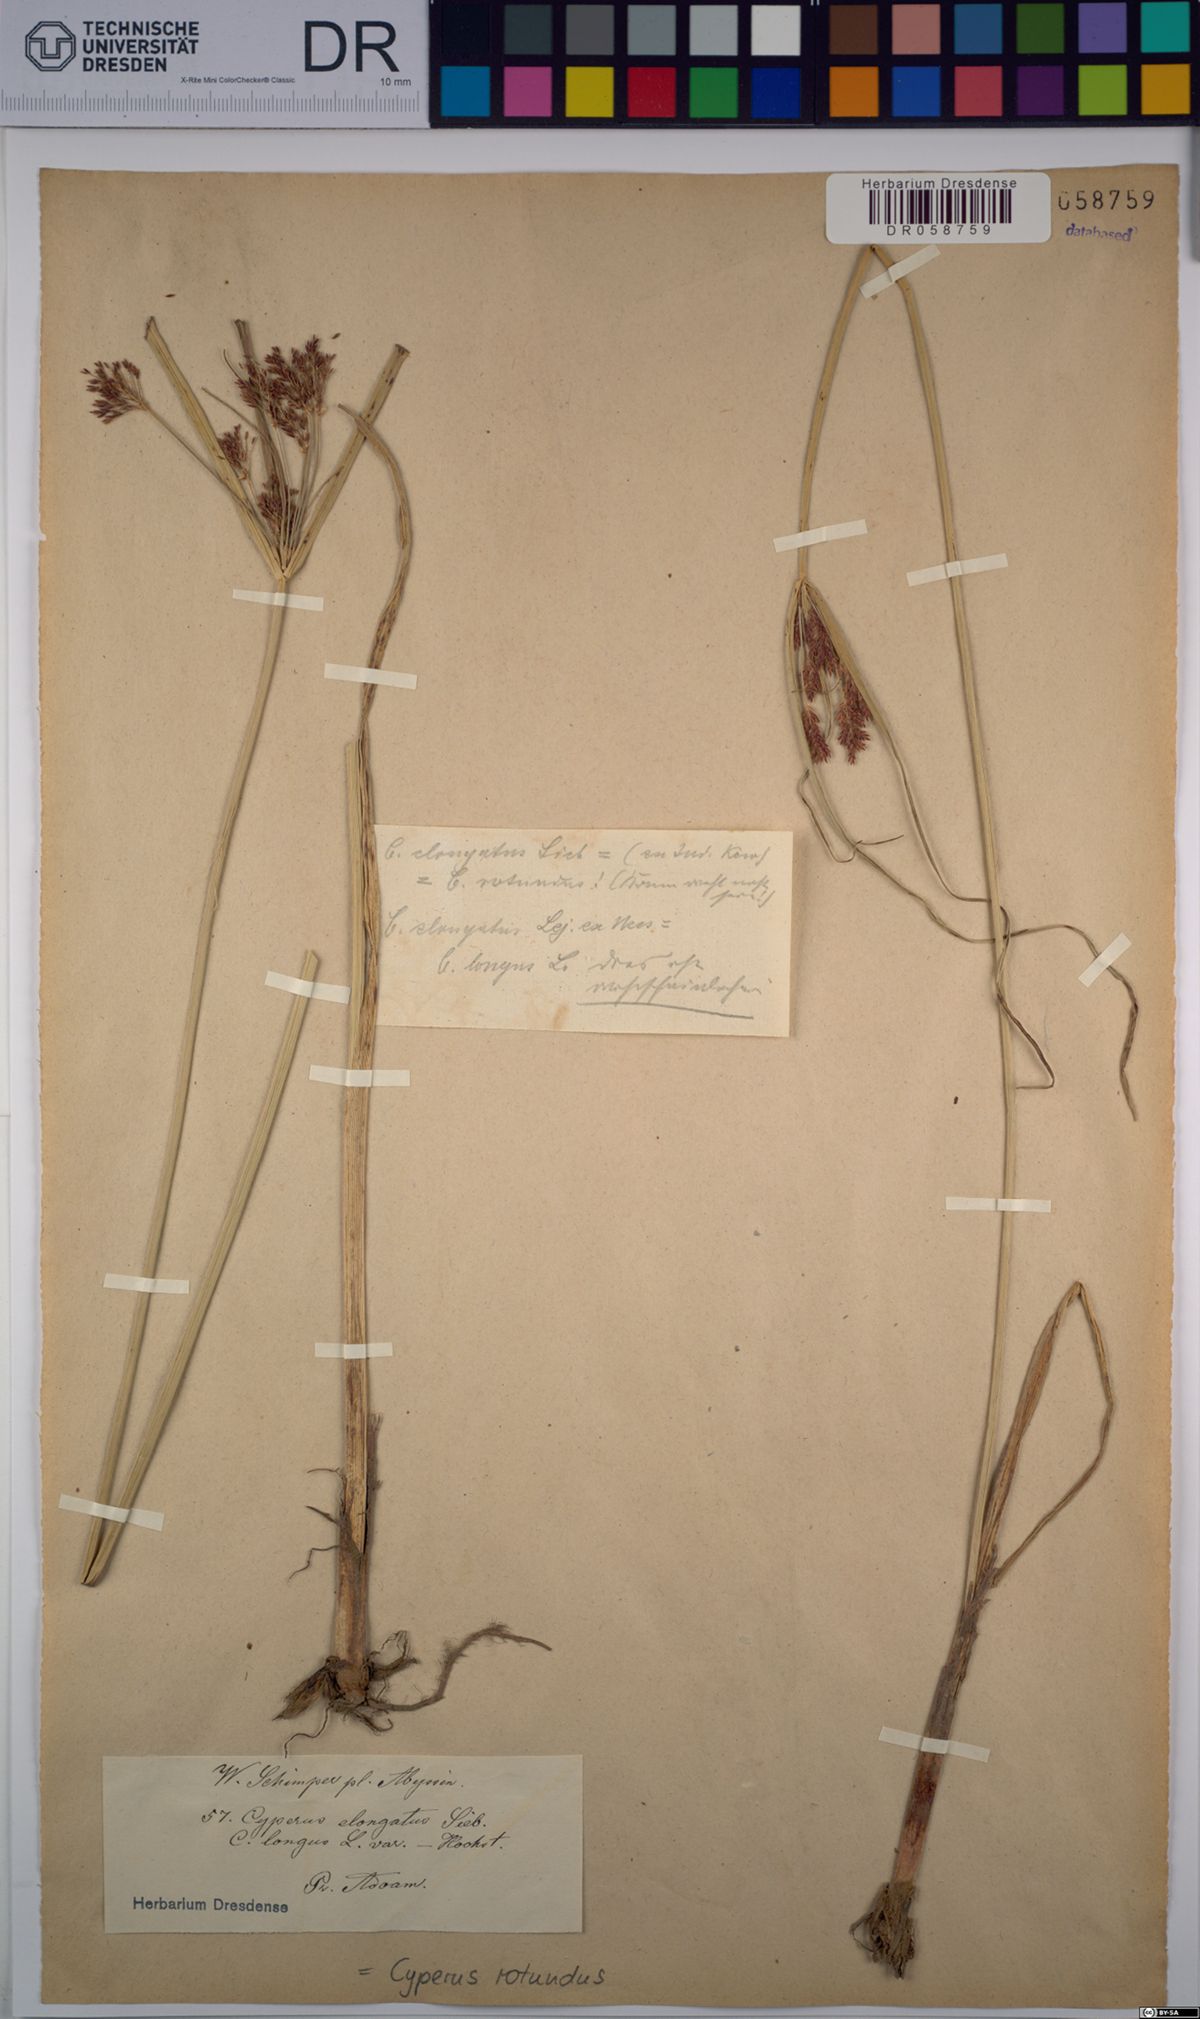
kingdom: Plantae
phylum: Tracheophyta
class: Liliopsida
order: Poales
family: Cyperaceae
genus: Cyperus
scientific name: Cyperus schimperianus
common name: Schimper flatsedge
